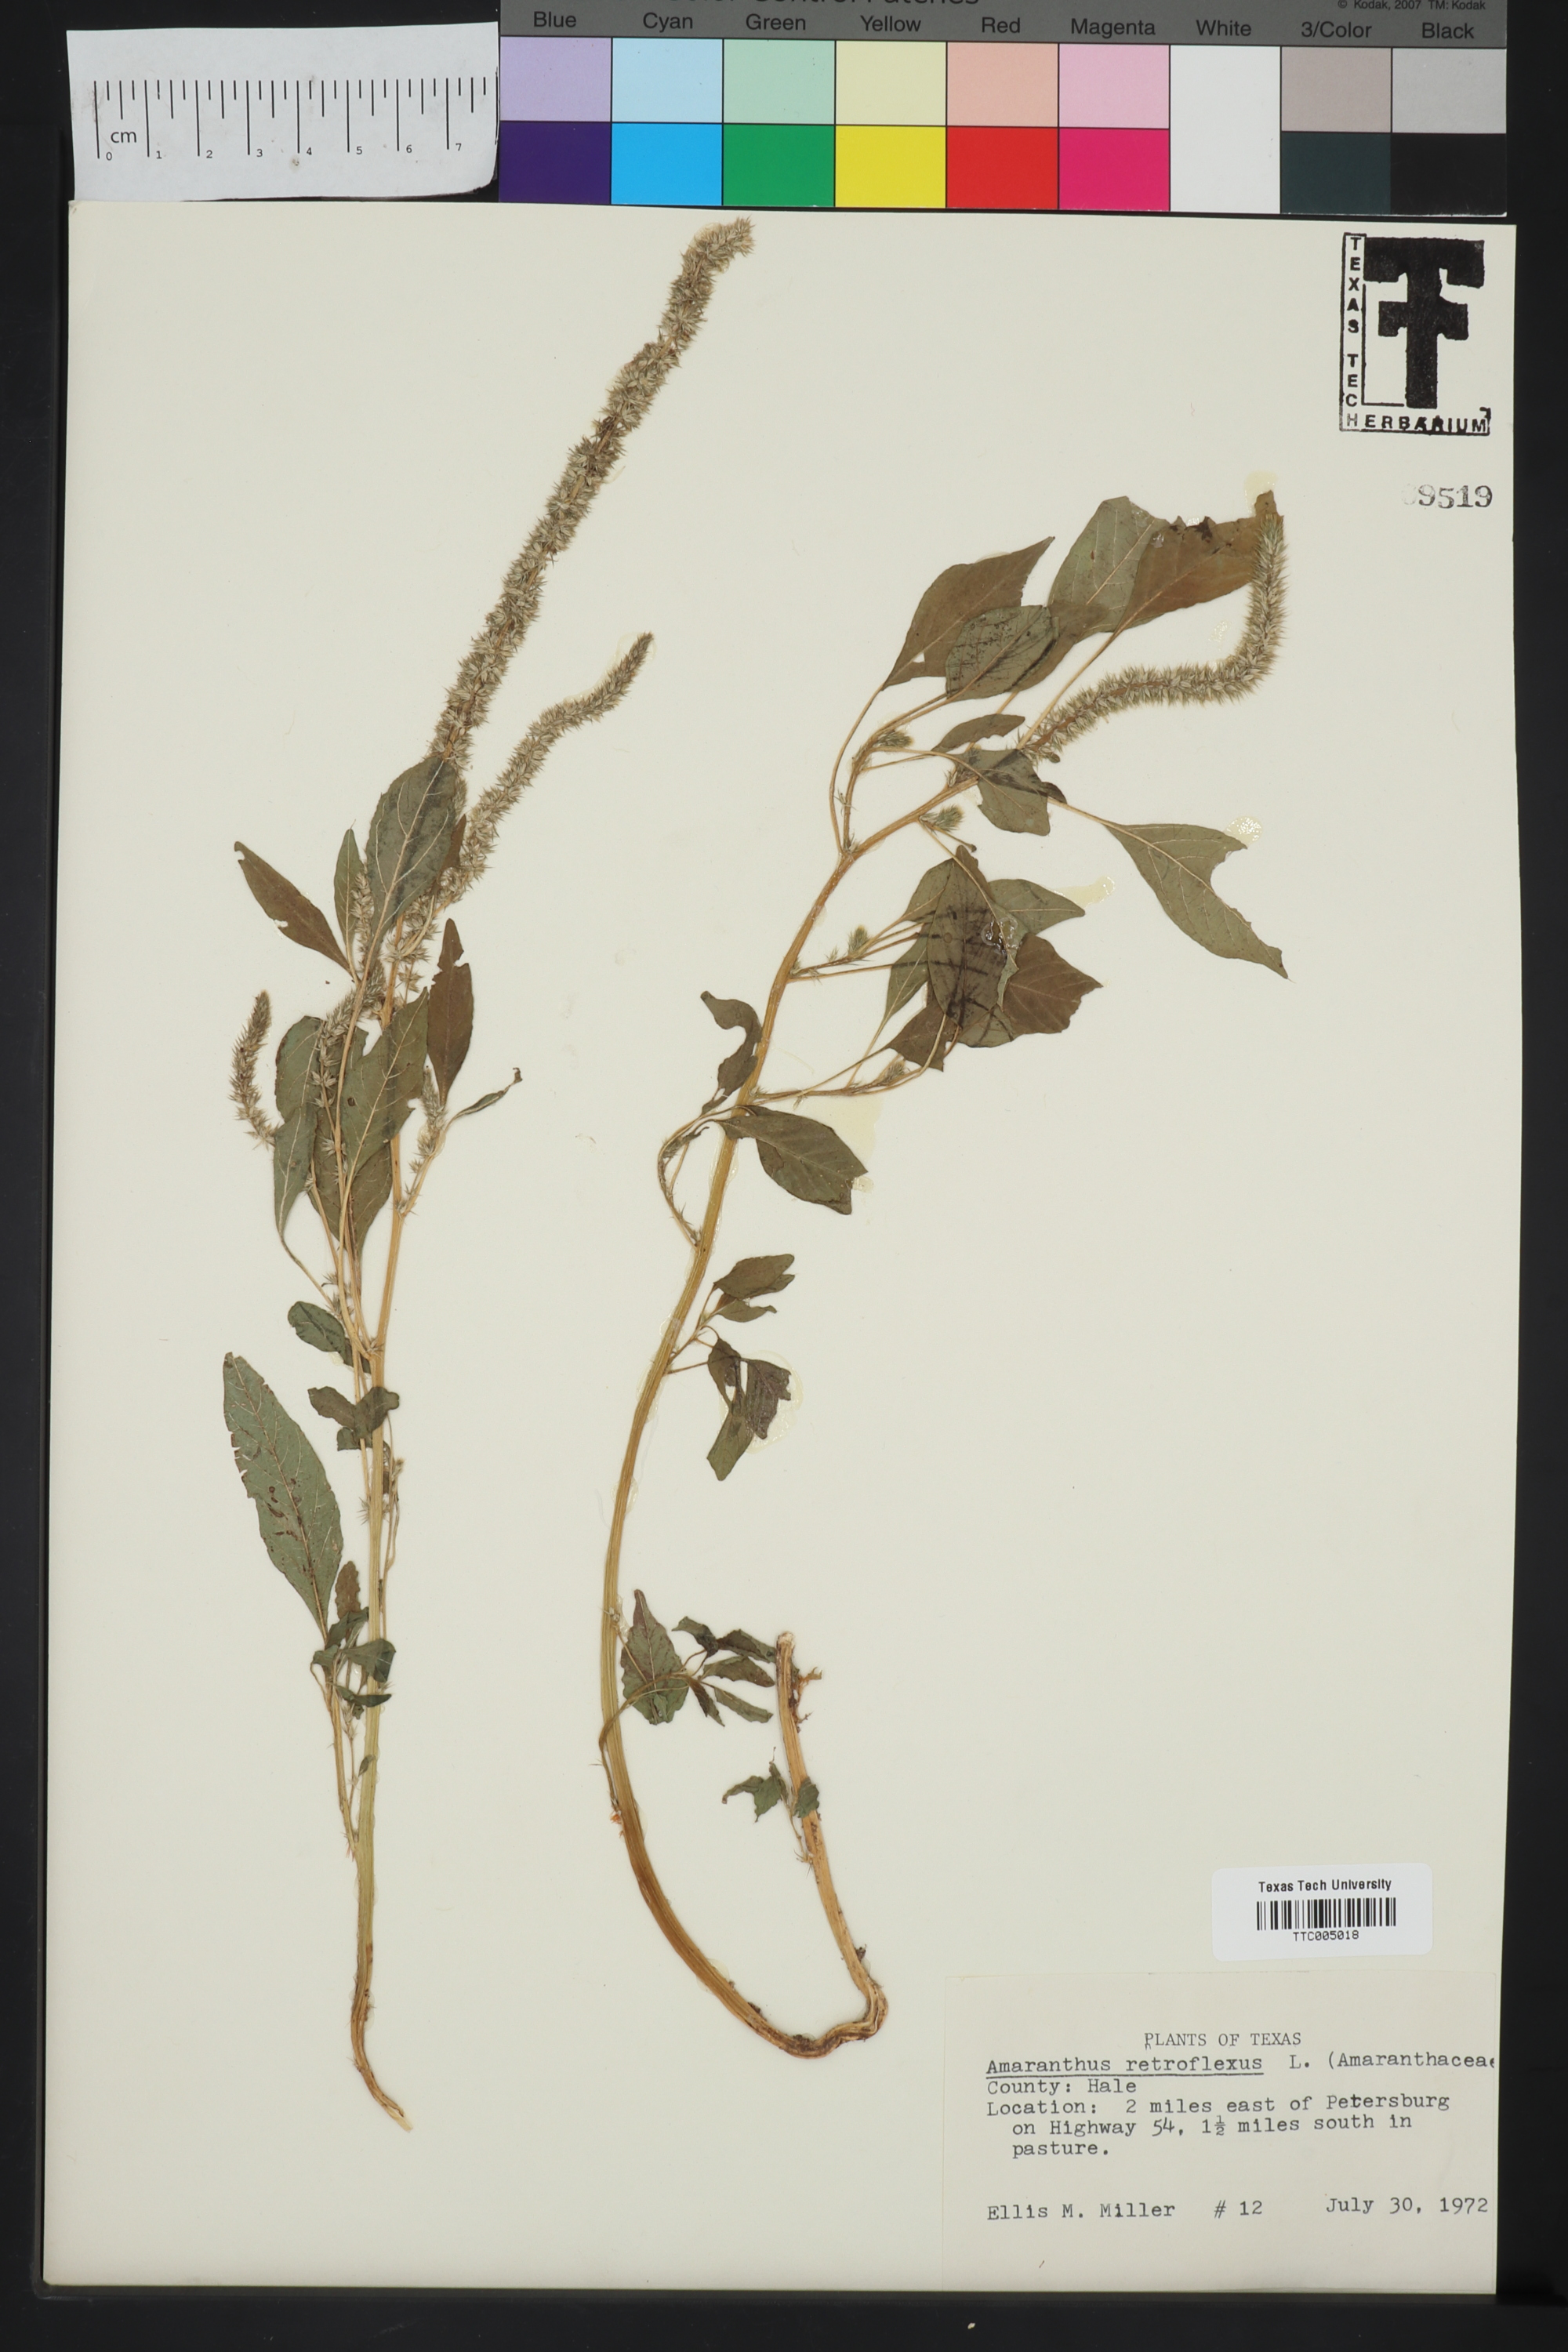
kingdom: Plantae
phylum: Tracheophyta
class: Magnoliopsida
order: Caryophyllales
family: Amaranthaceae
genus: Amaranthus
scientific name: Amaranthus retroflexus
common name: Redroot amaranth
